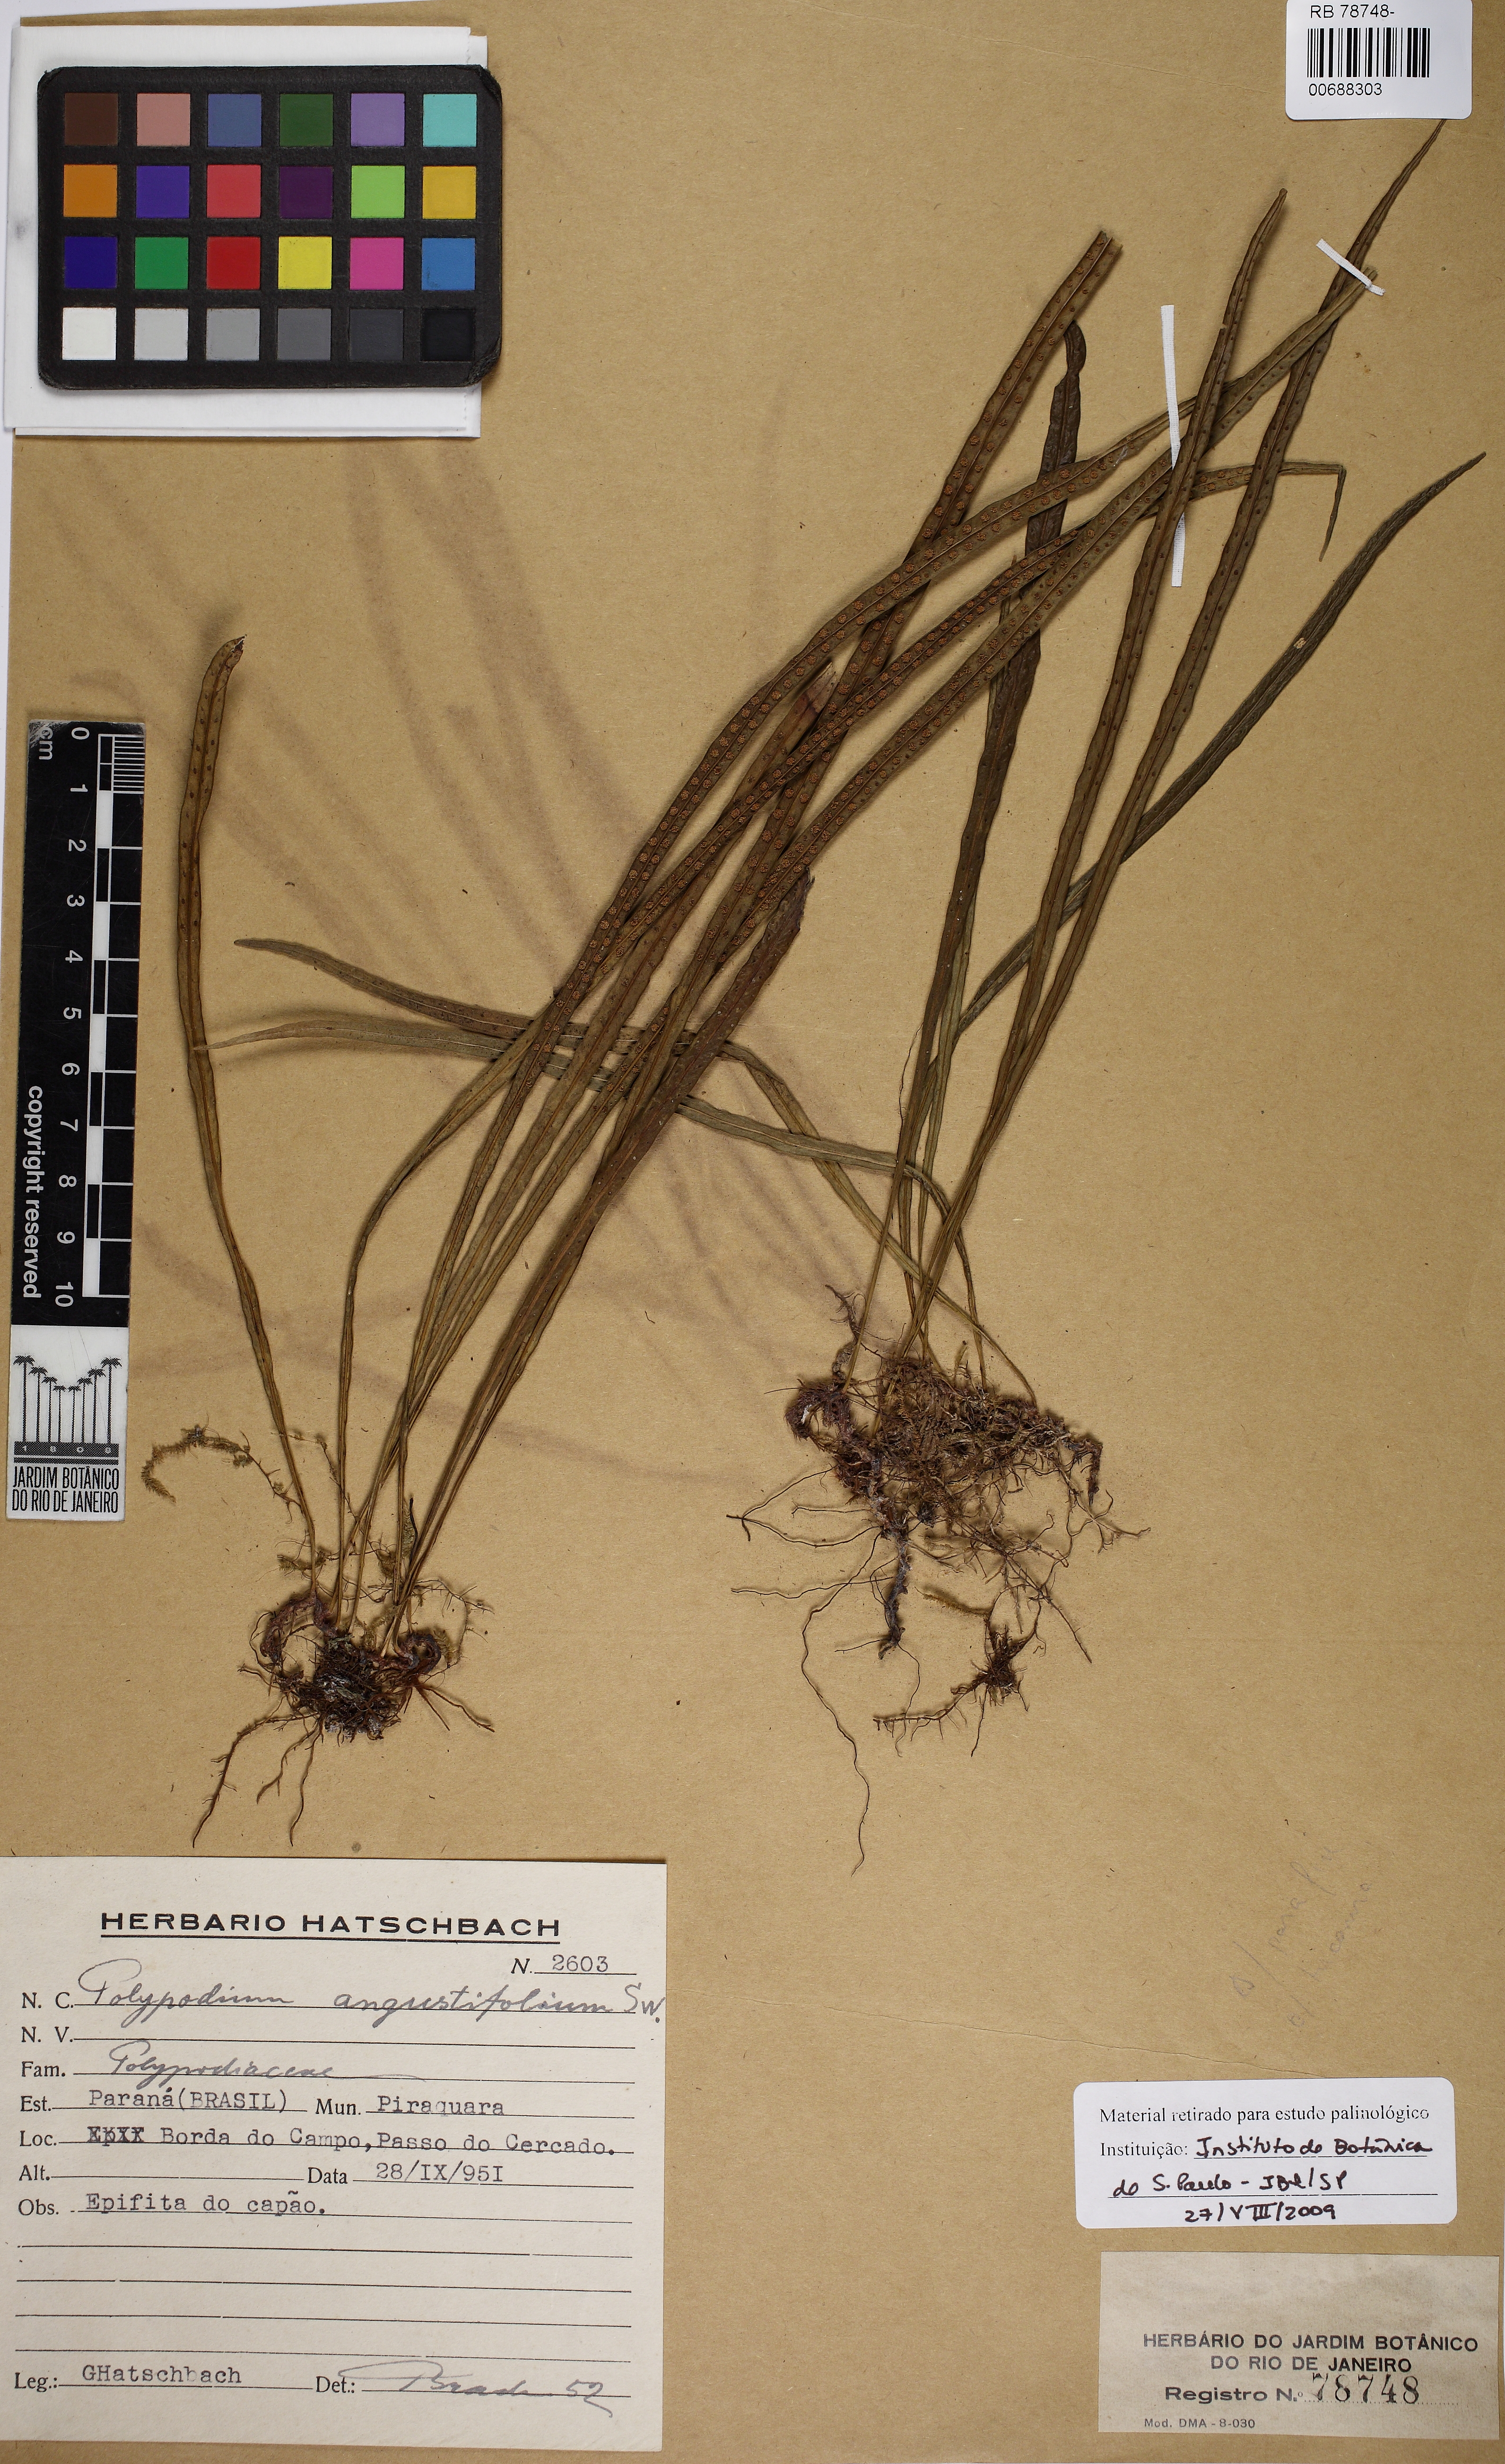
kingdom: Plantae
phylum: Tracheophyta
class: Polypodiopsida
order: Polypodiales
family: Polypodiaceae
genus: Campyloneurum
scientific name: Campyloneurum angustifolium
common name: Narrow-leaf strap fern
